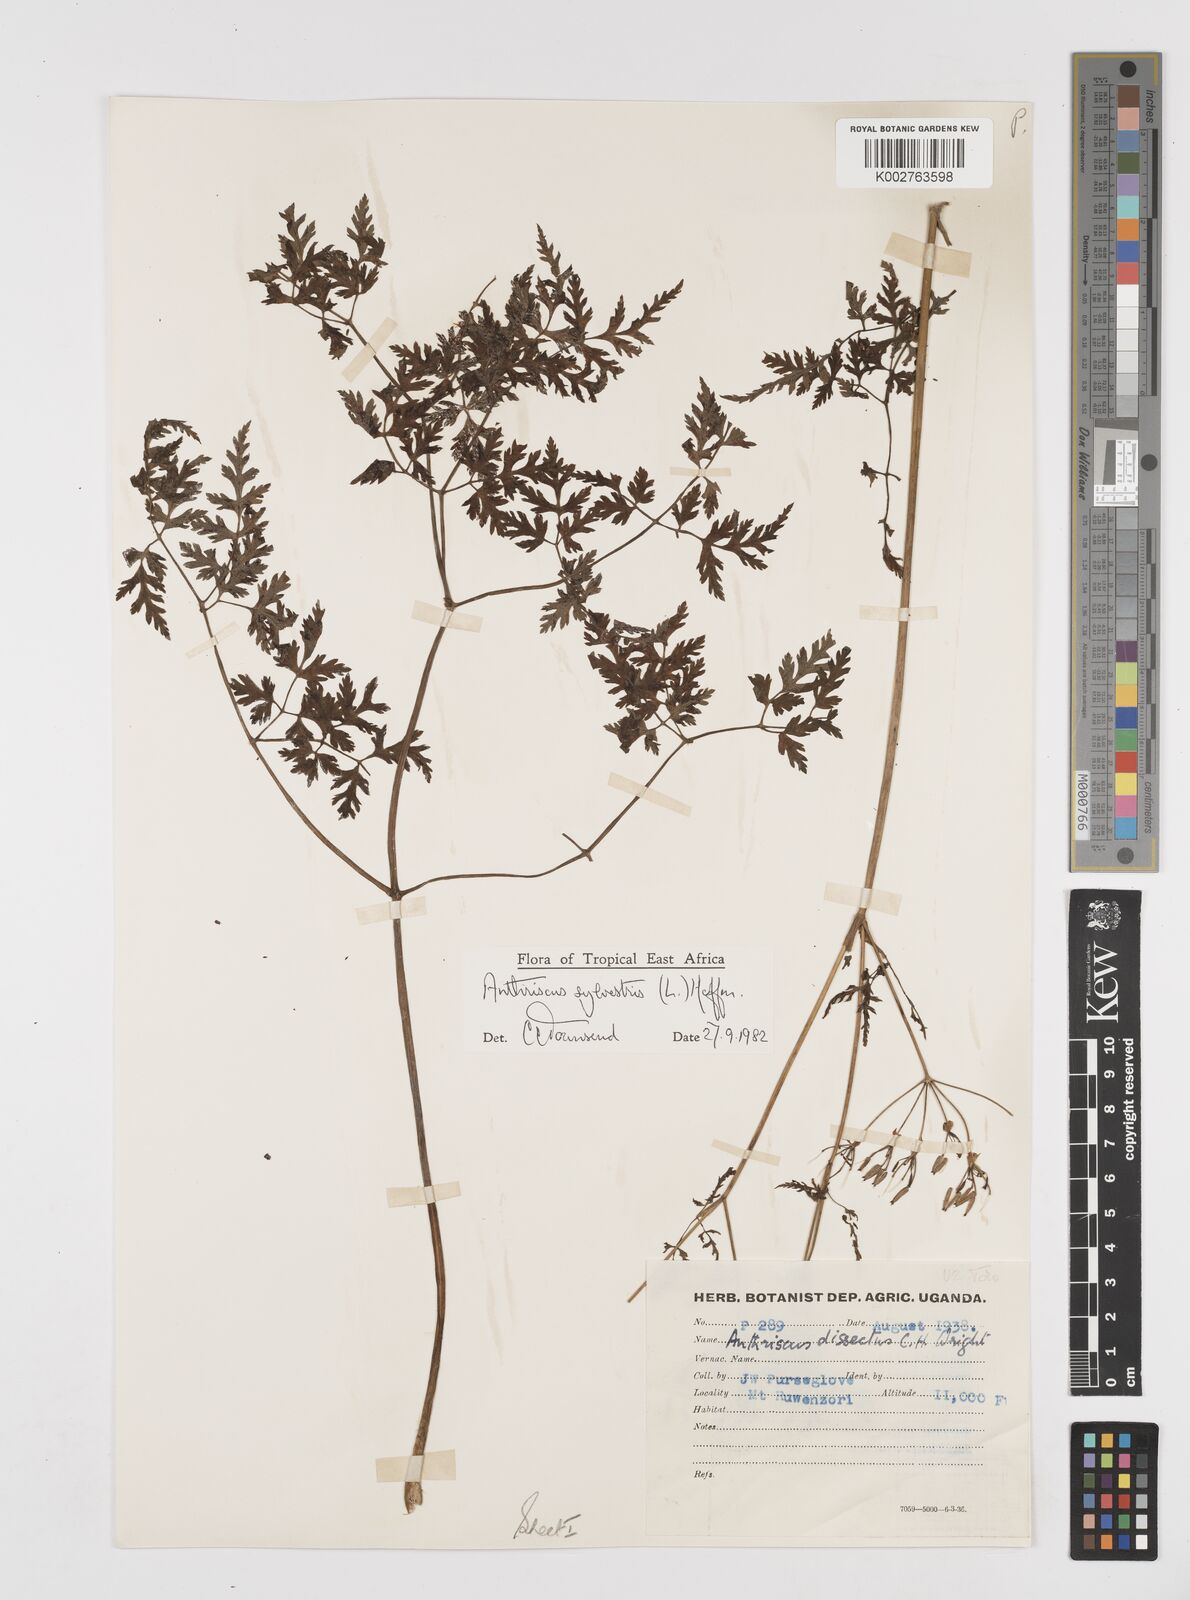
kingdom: Plantae
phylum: Tracheophyta
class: Magnoliopsida
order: Apiales
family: Apiaceae
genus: Anthriscus
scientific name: Anthriscus sylvestris
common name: Cow parsley
